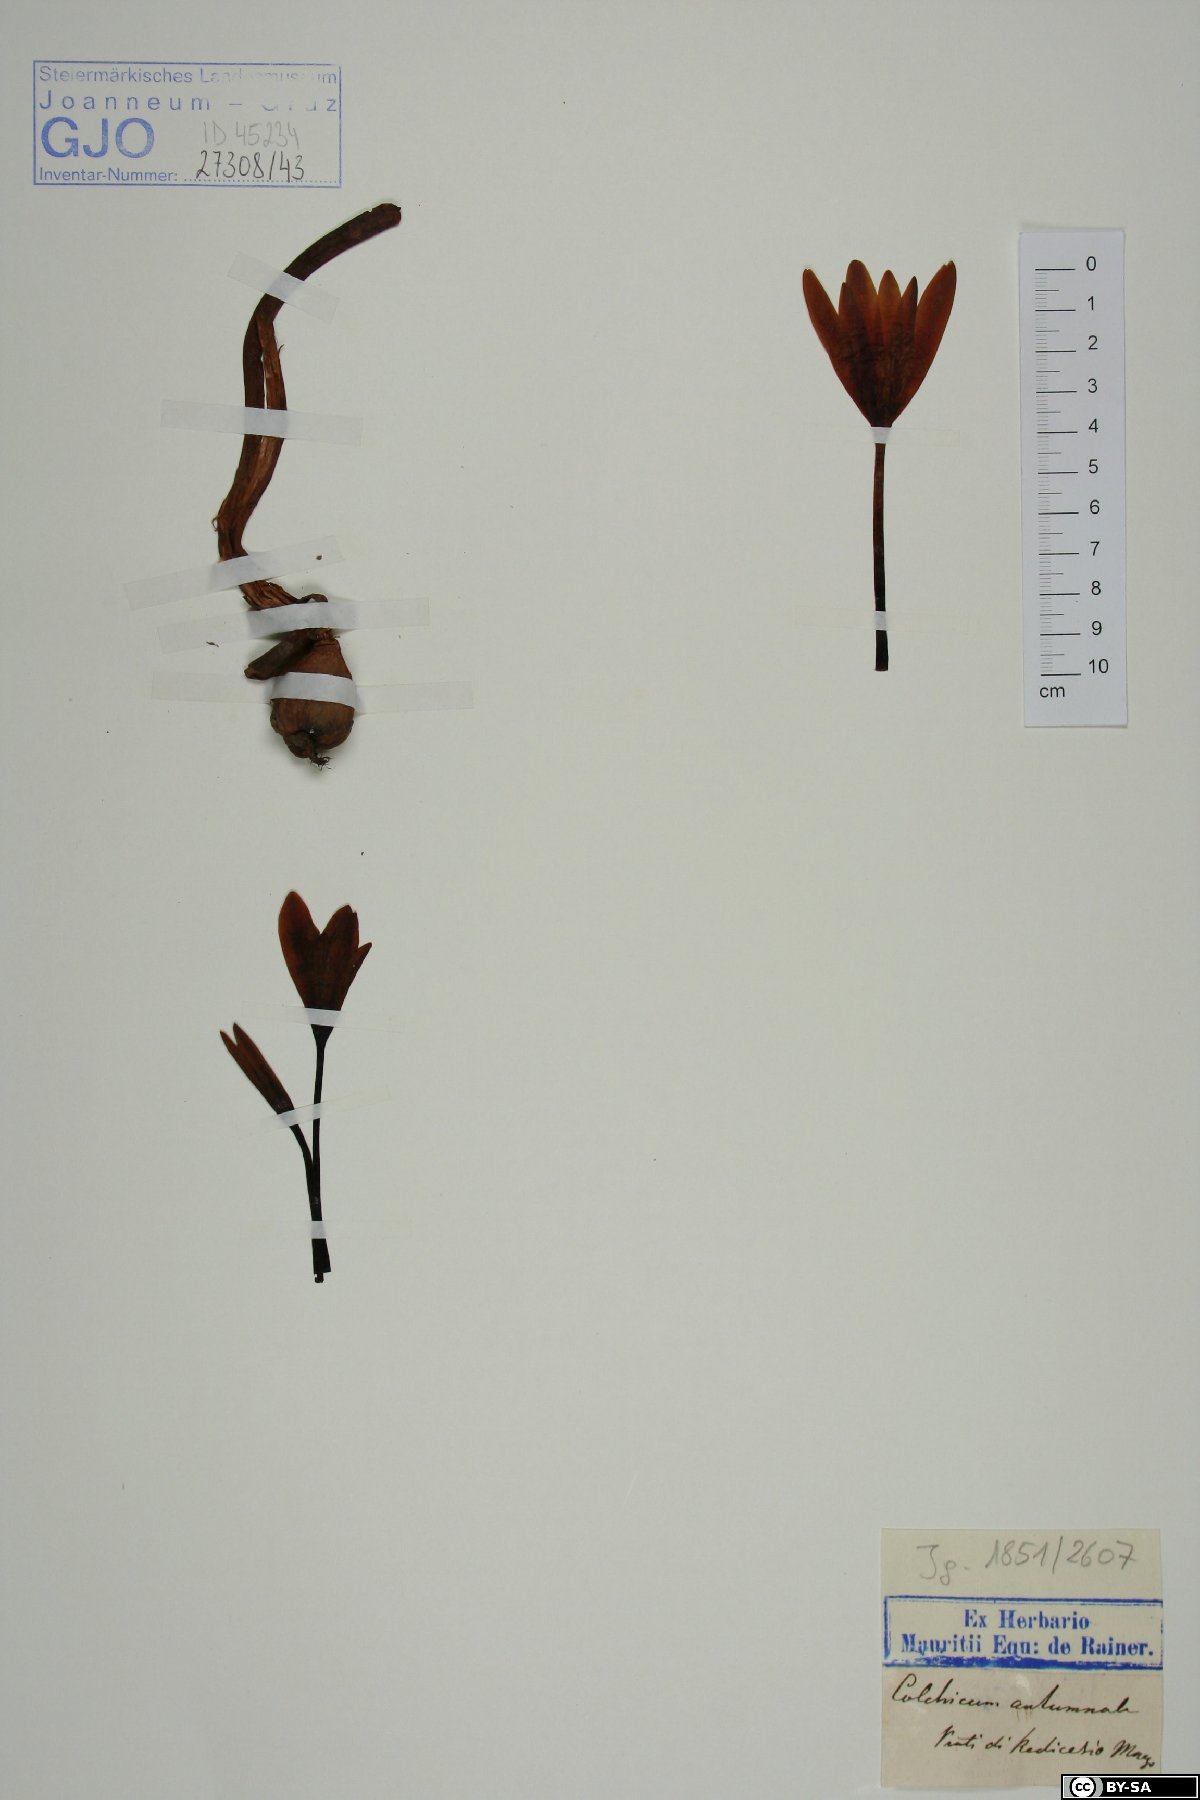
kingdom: Plantae
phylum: Tracheophyta
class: Liliopsida
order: Liliales
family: Colchicaceae
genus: Colchicum
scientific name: Colchicum autumnale
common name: Autumn crocus
